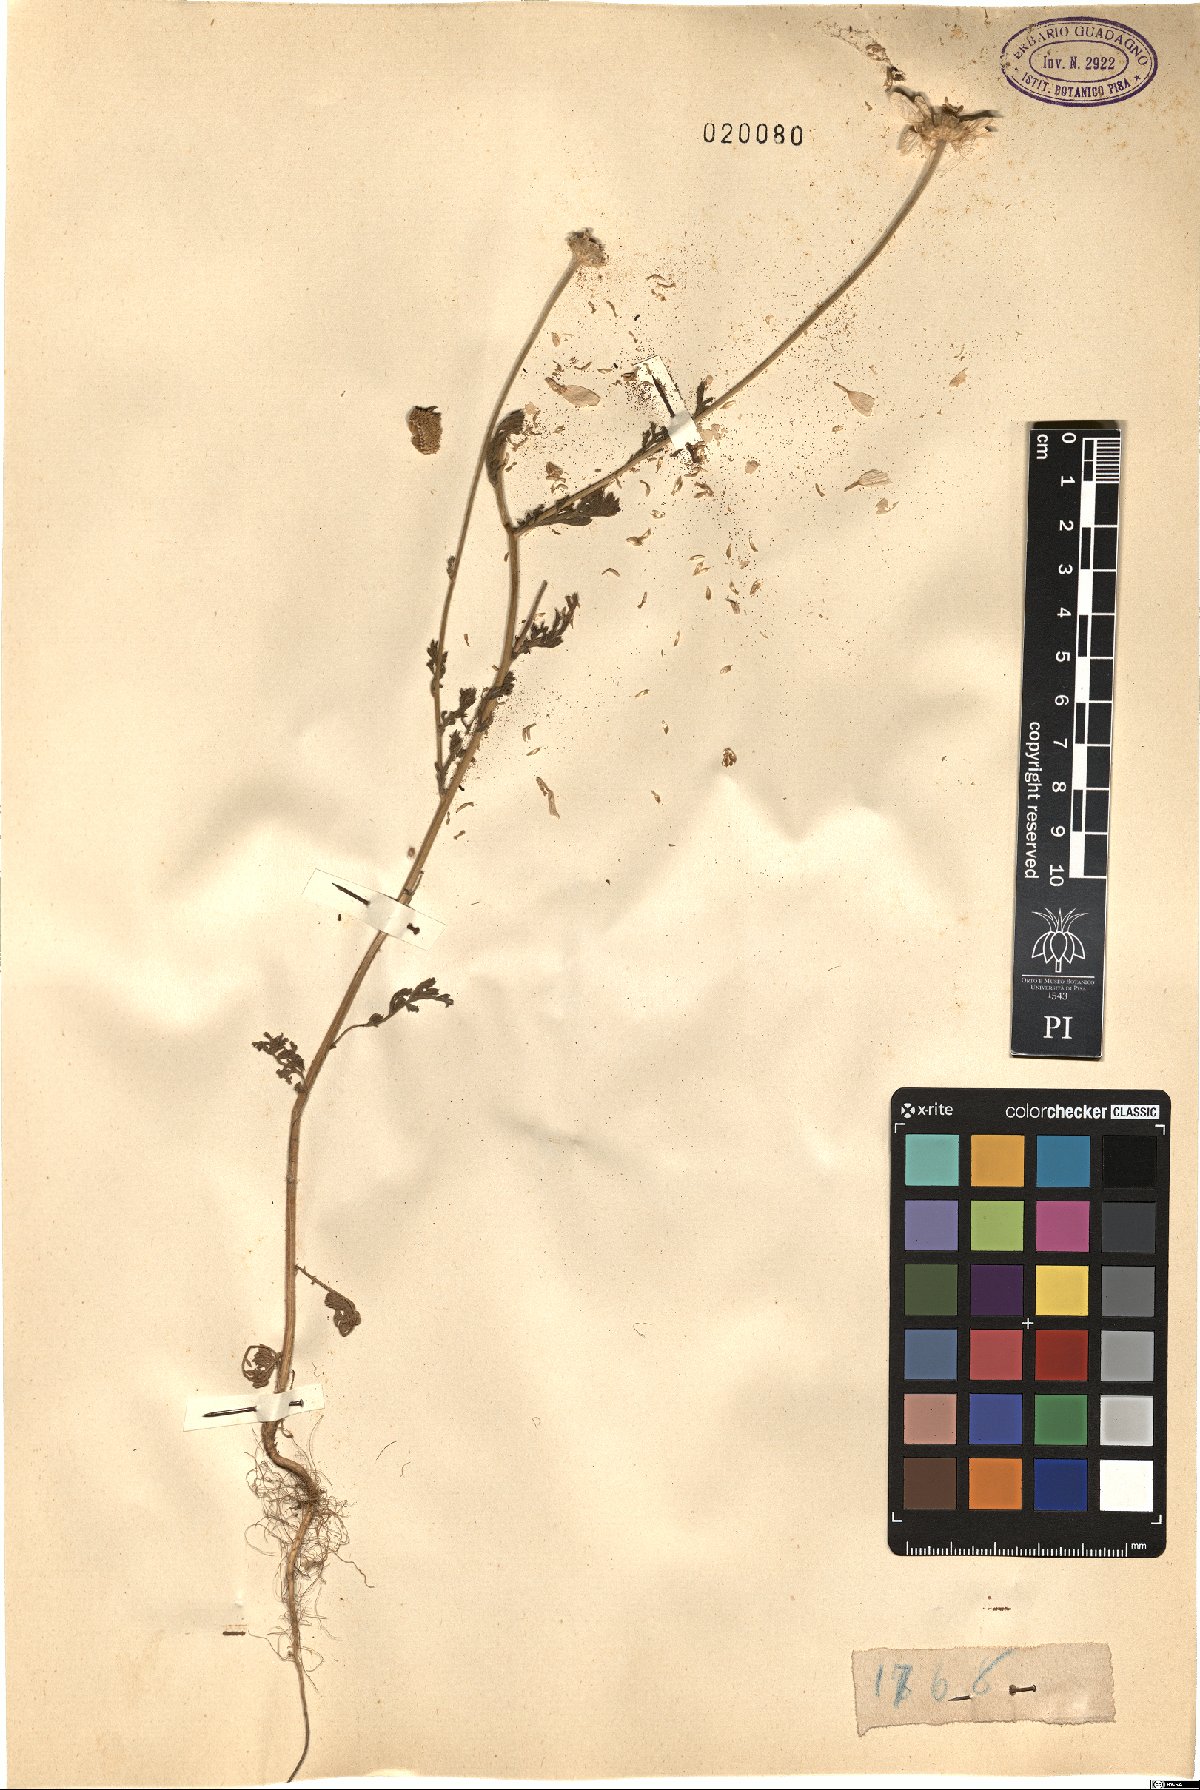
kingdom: Plantae
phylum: Tracheophyta
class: Magnoliopsida
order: Asterales
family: Asteraceae
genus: Anthemis
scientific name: Anthemis
